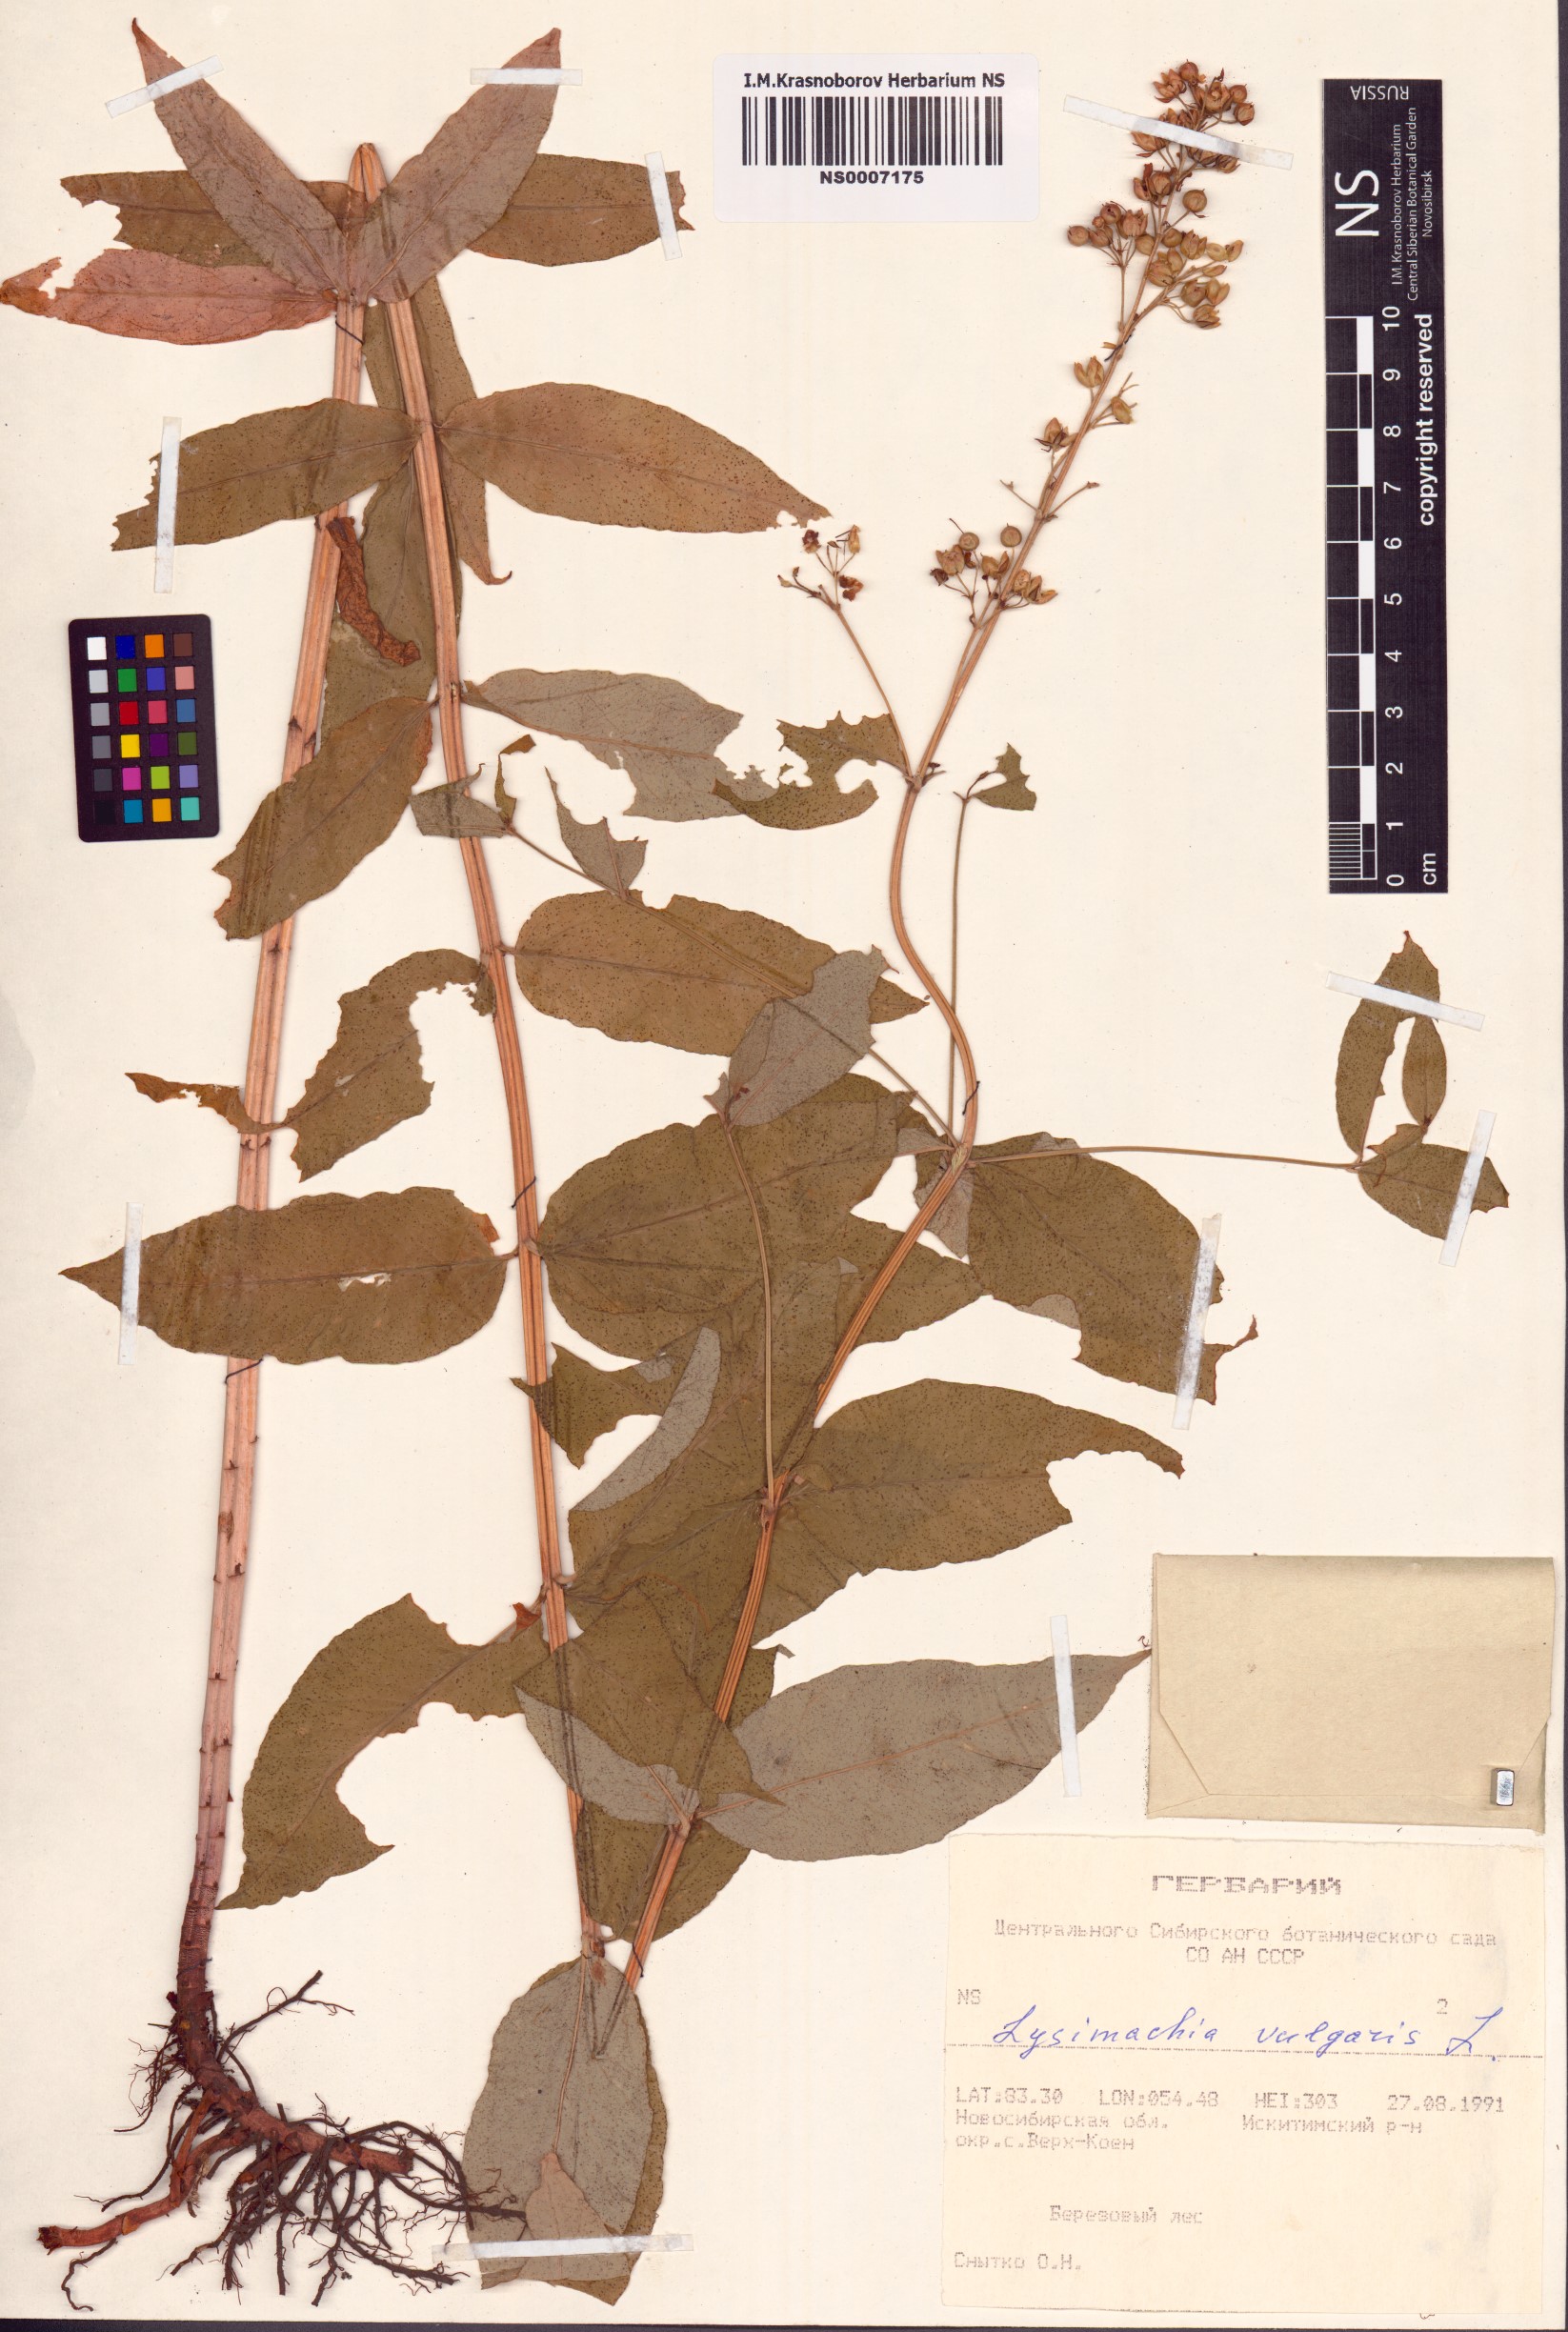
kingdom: Plantae
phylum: Tracheophyta
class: Magnoliopsida
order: Ericales
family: Primulaceae
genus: Lysimachia
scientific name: Lysimachia vulgaris
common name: Yellow loosestrife
